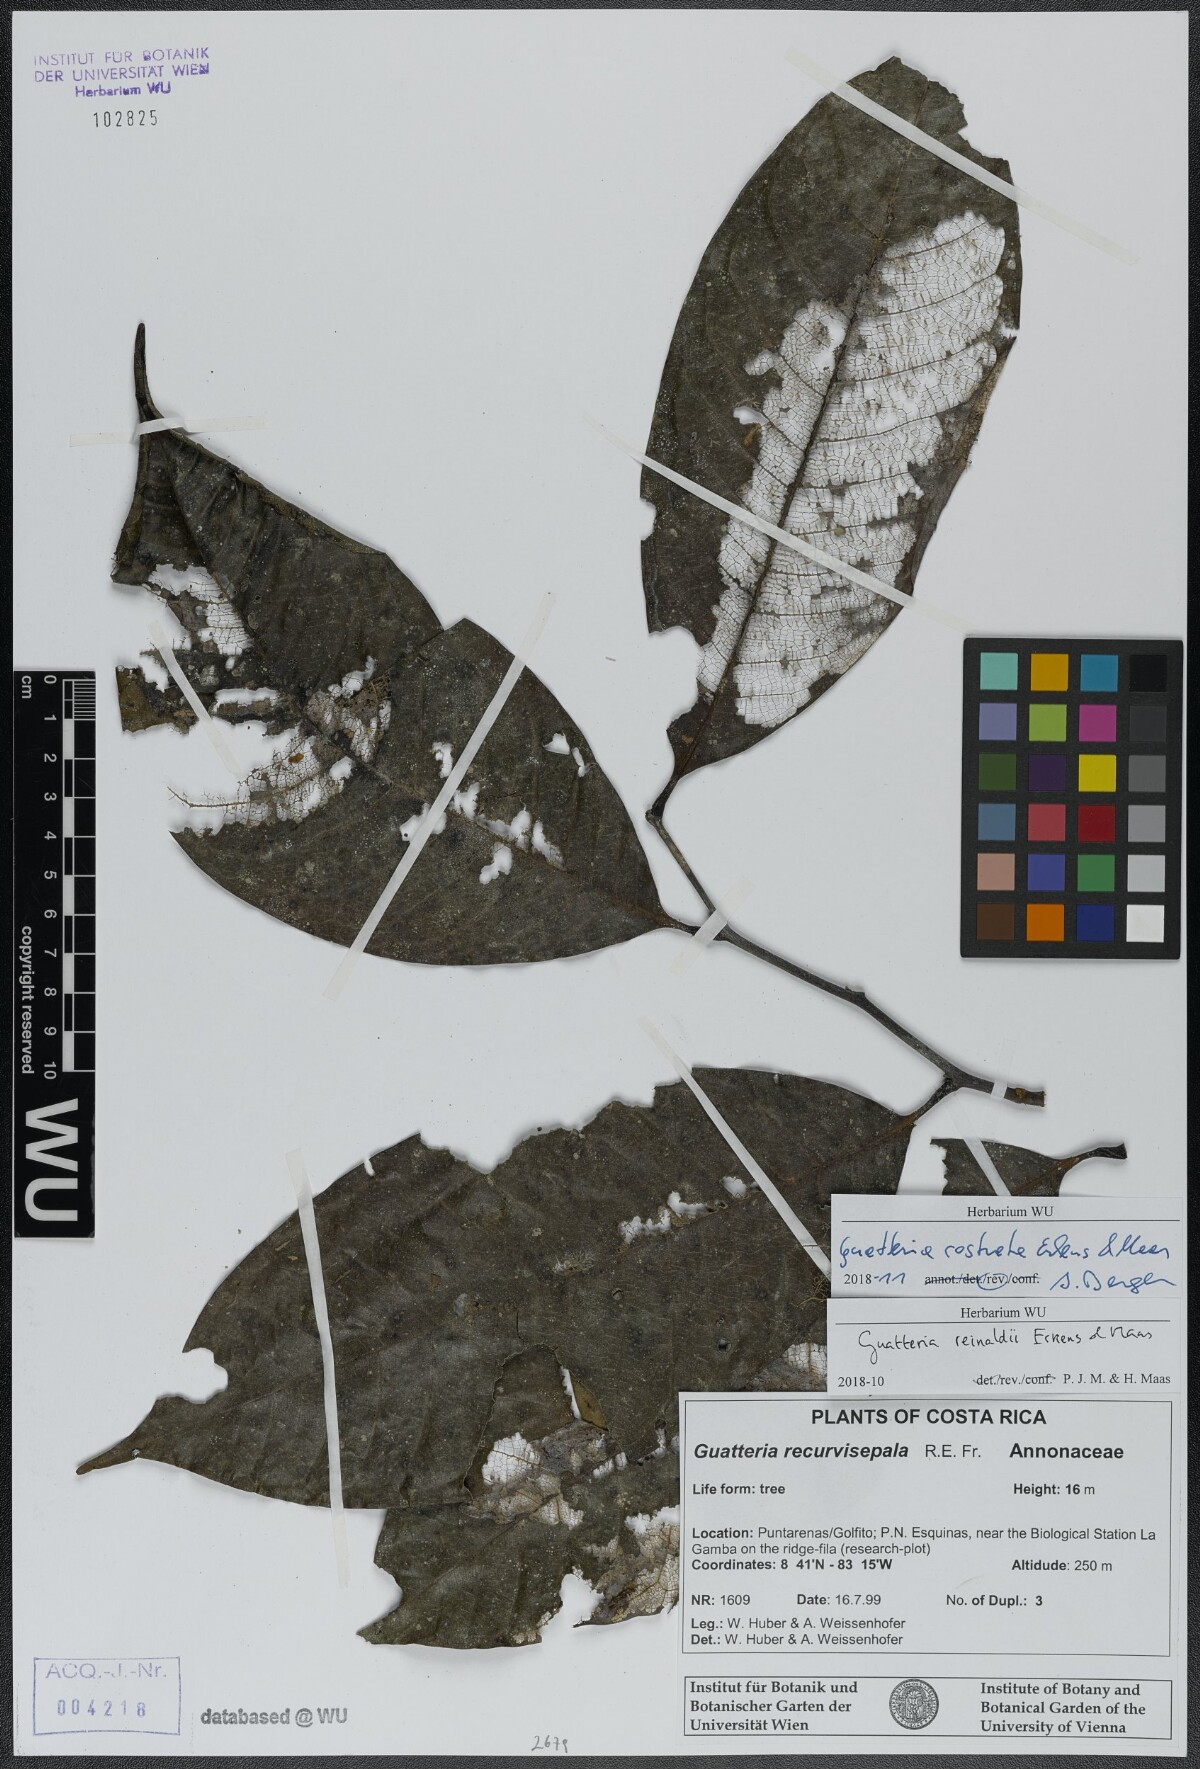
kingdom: Plantae
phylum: Tracheophyta
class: Magnoliopsida
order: Magnoliales
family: Annonaceae
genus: Guatteria
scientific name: Guatteria reinaldii
